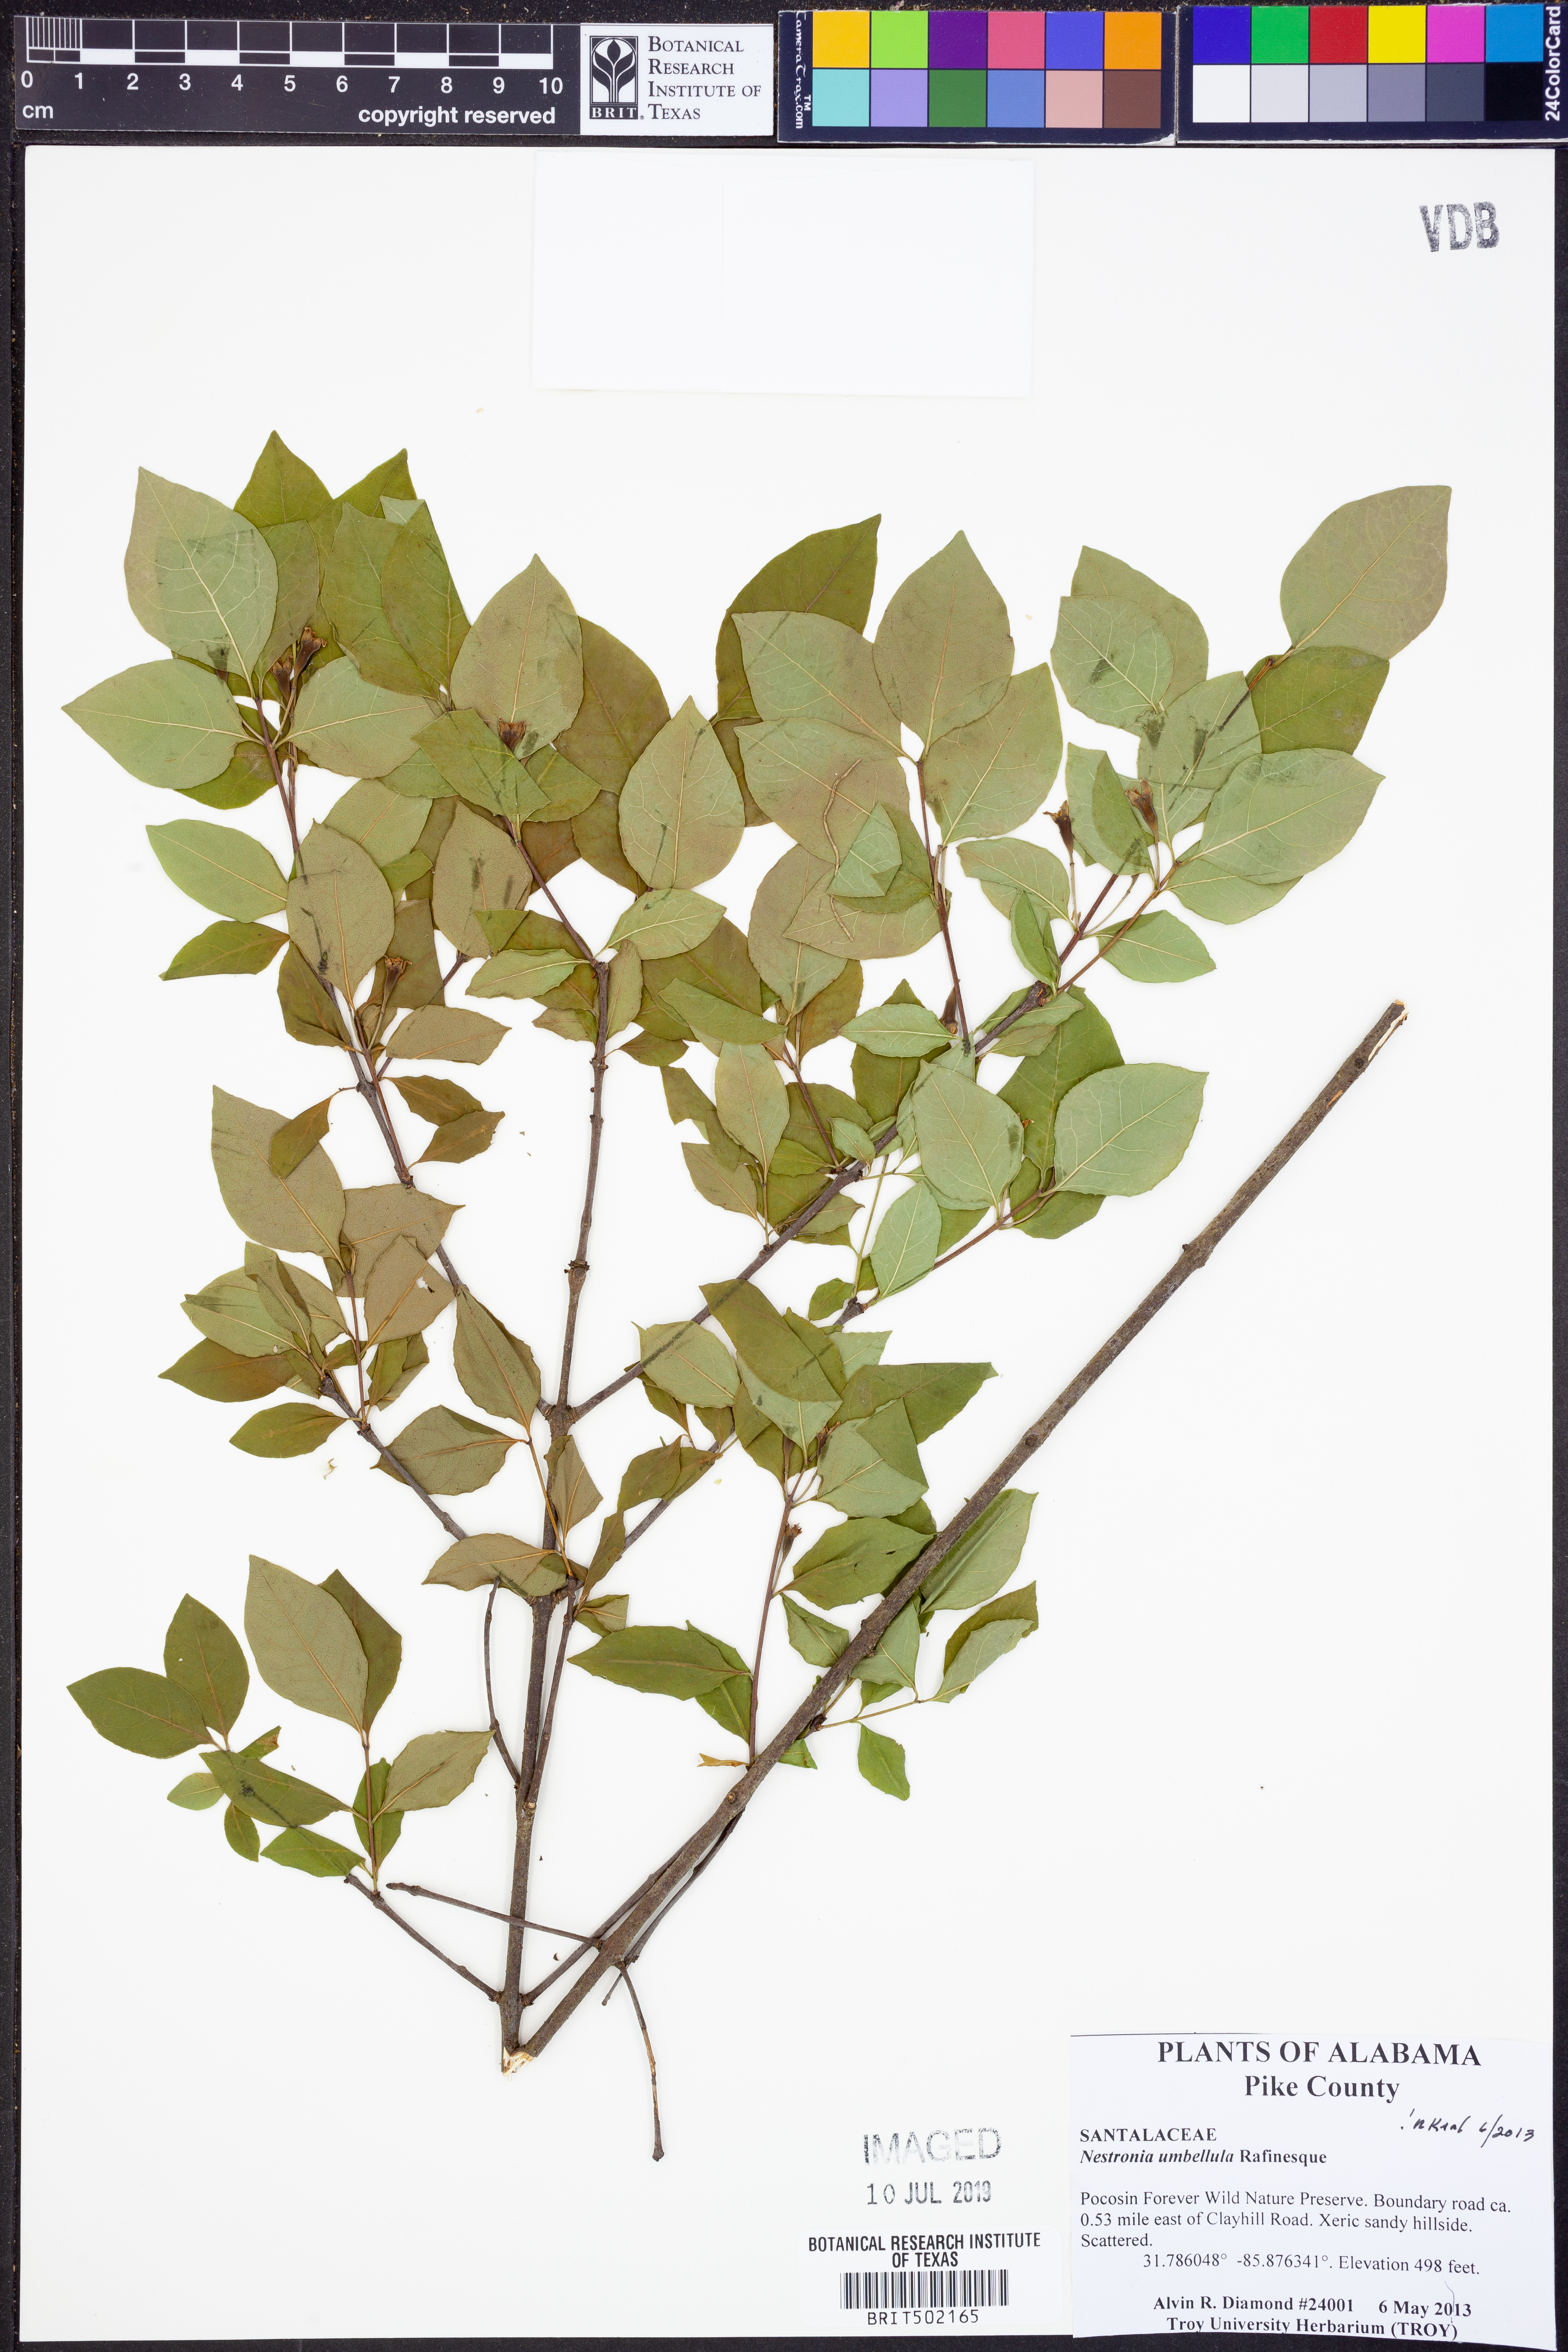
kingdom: Plantae
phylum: Tracheophyta
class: Magnoliopsida
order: Santalales
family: Santalaceae
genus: Nestronia
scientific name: Nestronia umbellula
